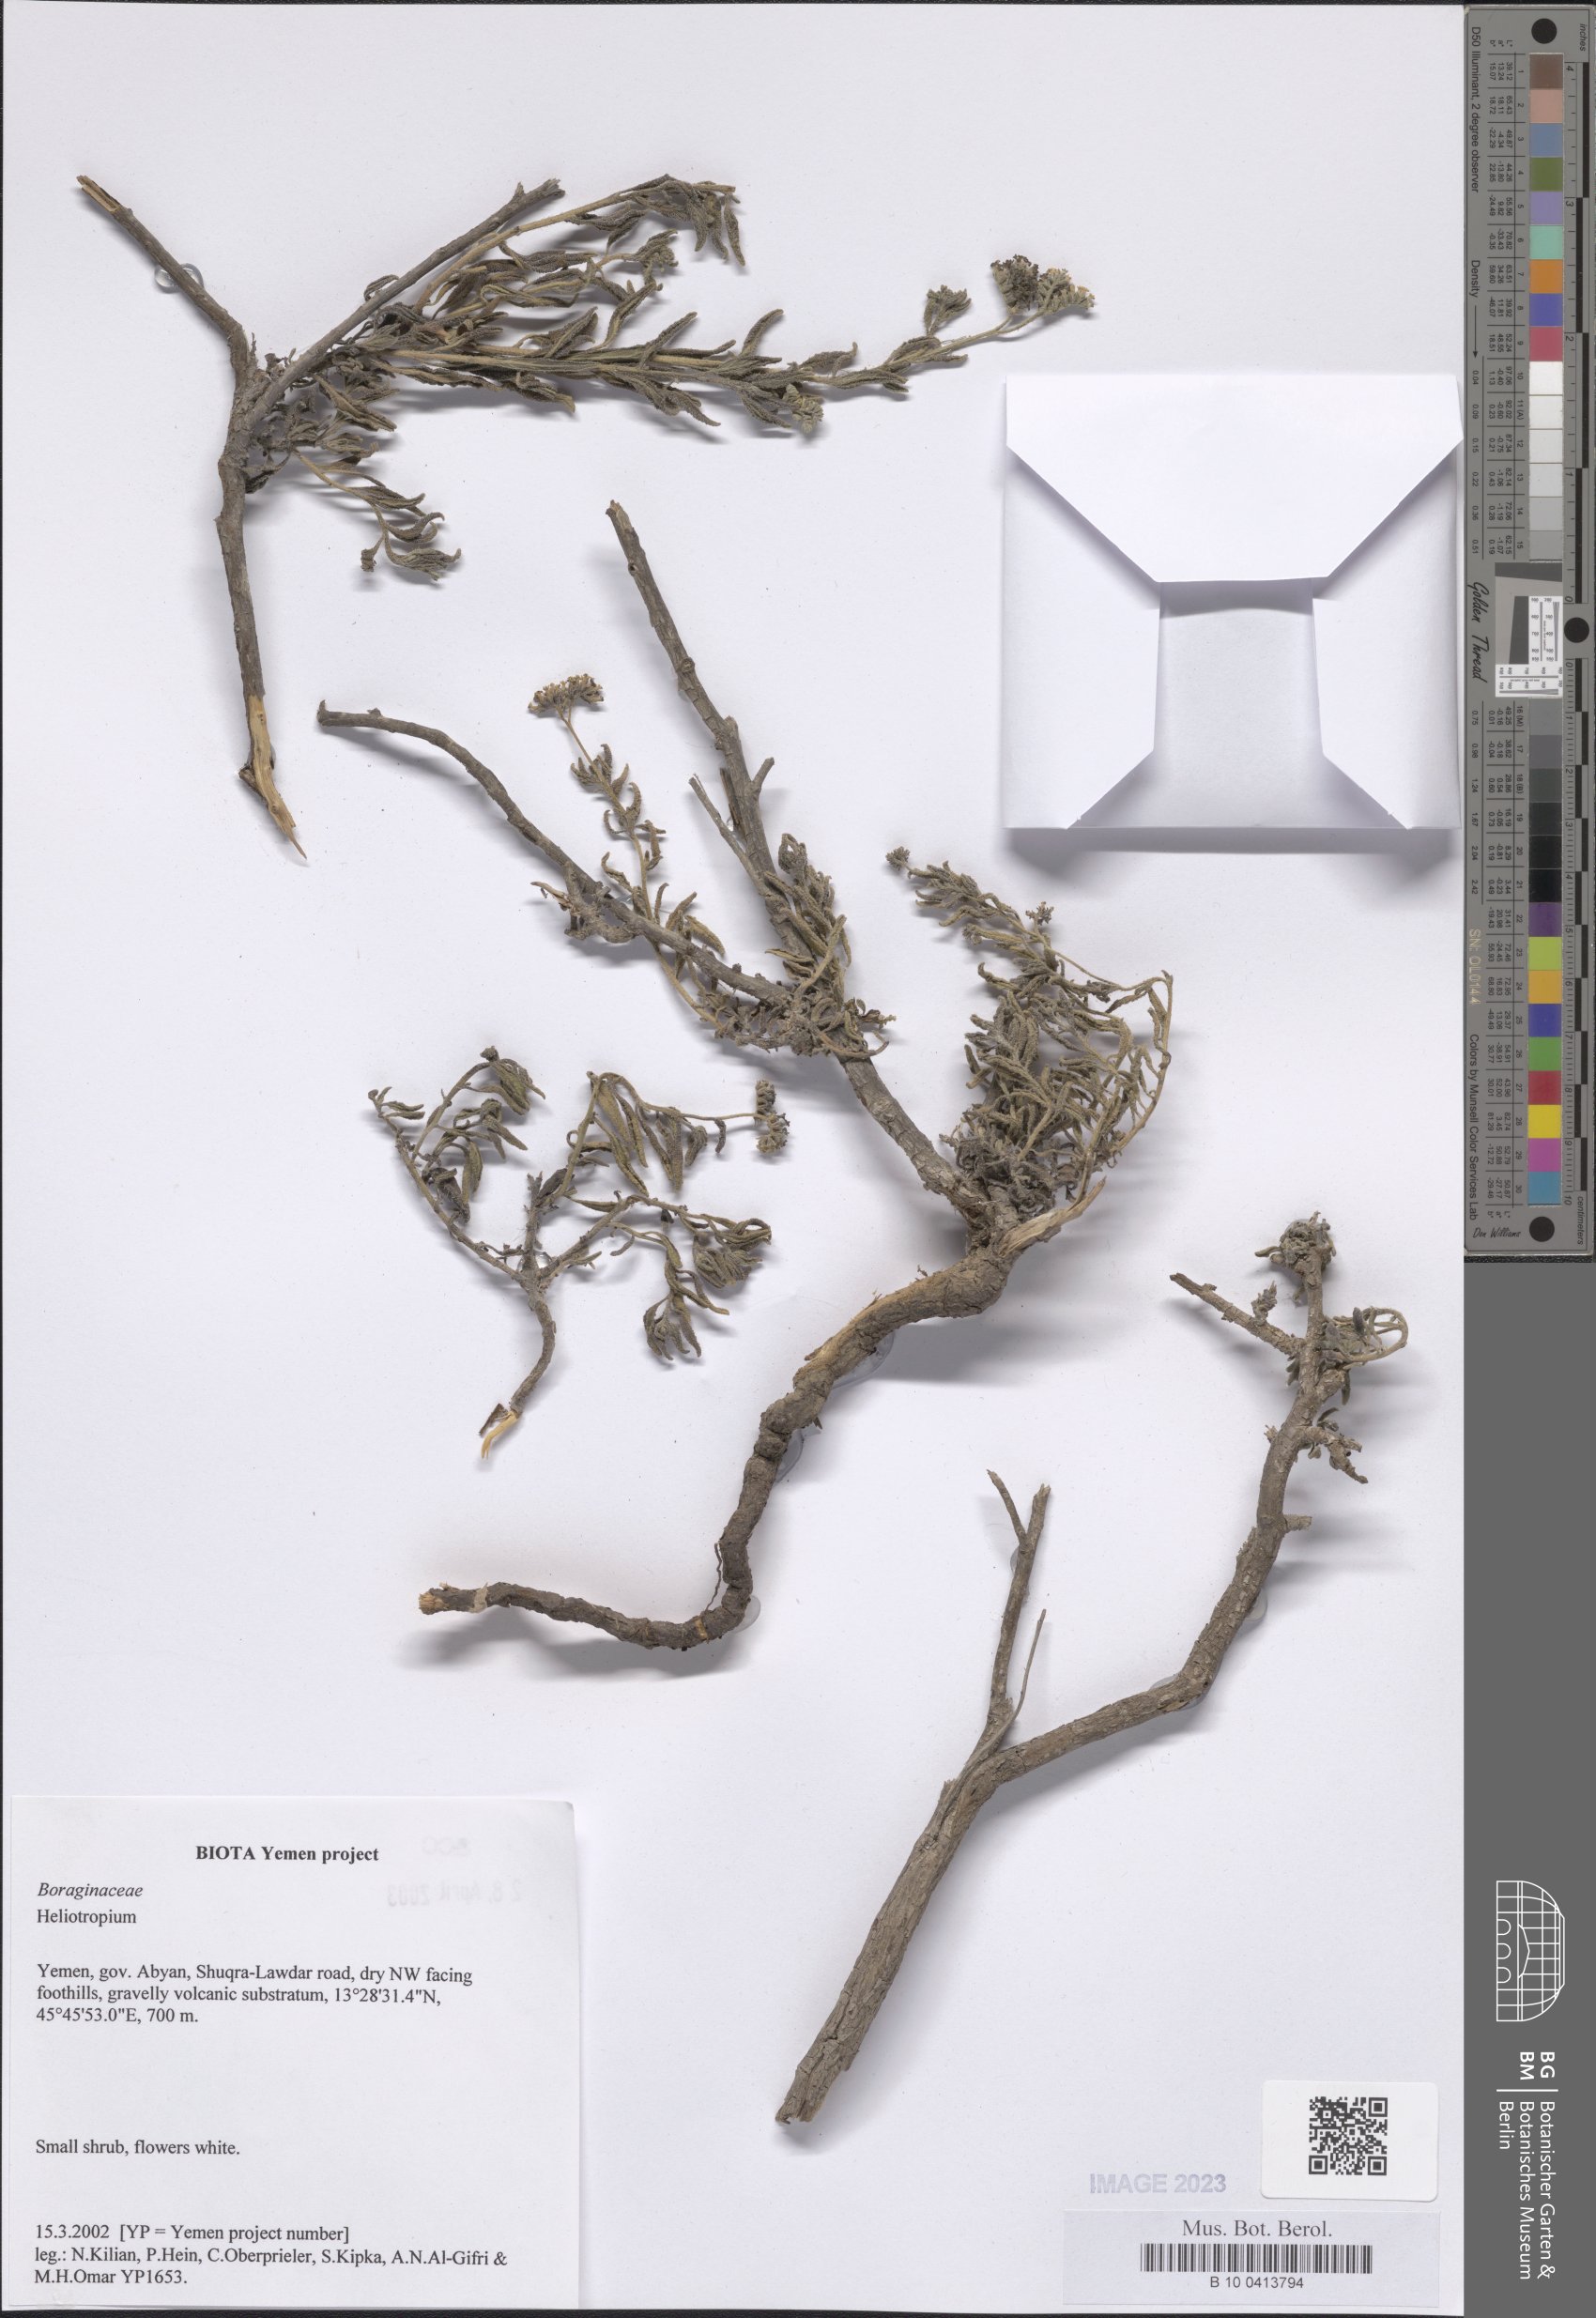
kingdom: Plantae
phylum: Tracheophyta
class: Magnoliopsida
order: Boraginales
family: Heliotropiaceae
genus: Heliotropium
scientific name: Heliotropium
